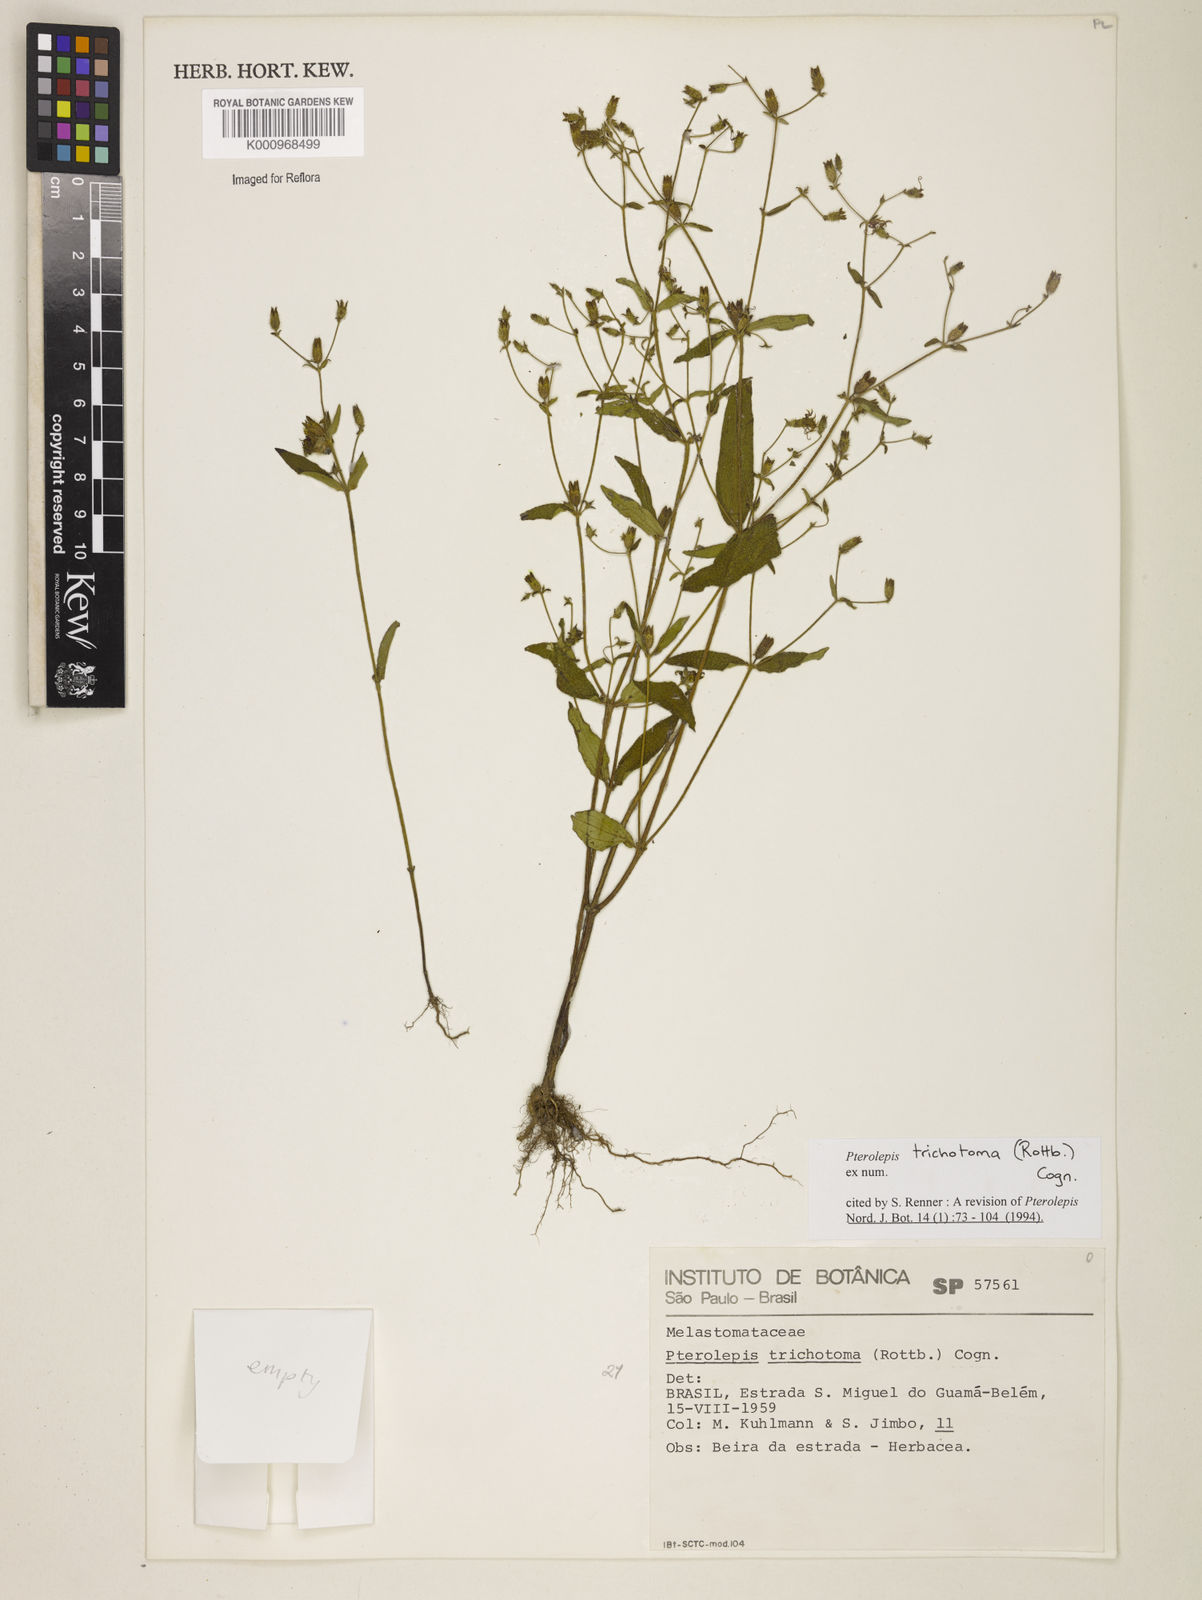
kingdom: Plantae
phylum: Tracheophyta
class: Magnoliopsida
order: Myrtales
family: Melastomataceae
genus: Pterolepis
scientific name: Pterolepis trichotoma
